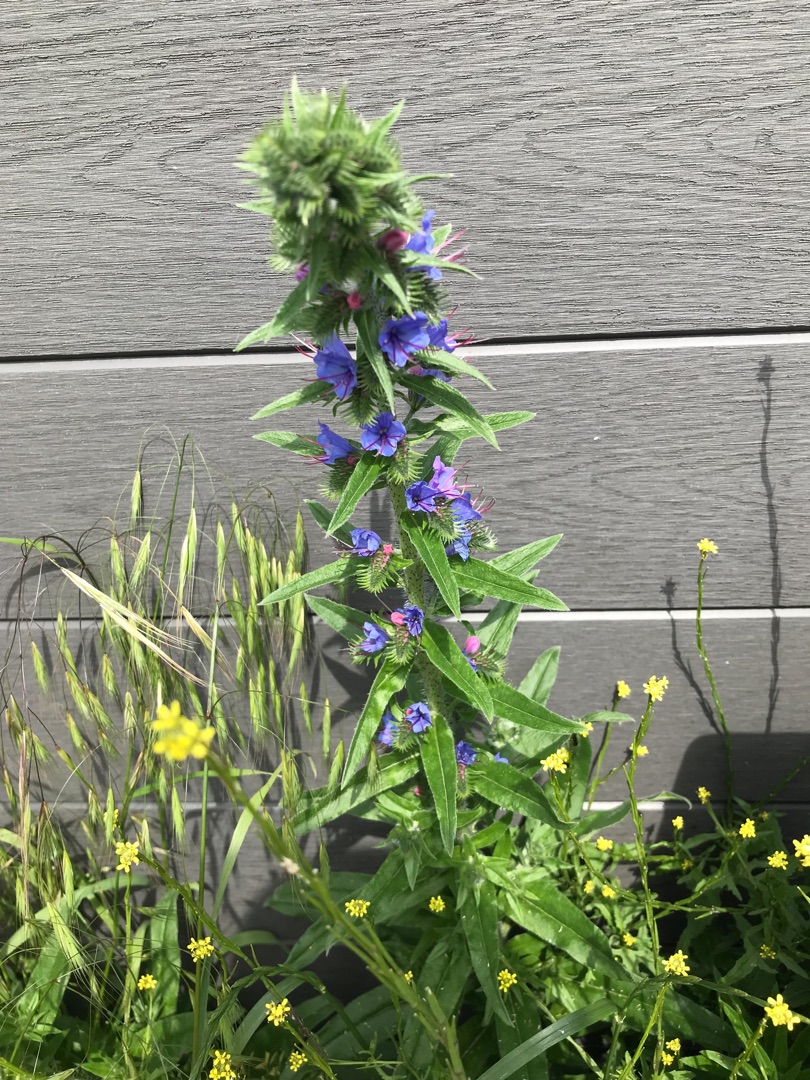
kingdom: Plantae
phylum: Tracheophyta
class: Magnoliopsida
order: Boraginales
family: Boraginaceae
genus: Echium
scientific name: Echium vulgare
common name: Slangehoved
